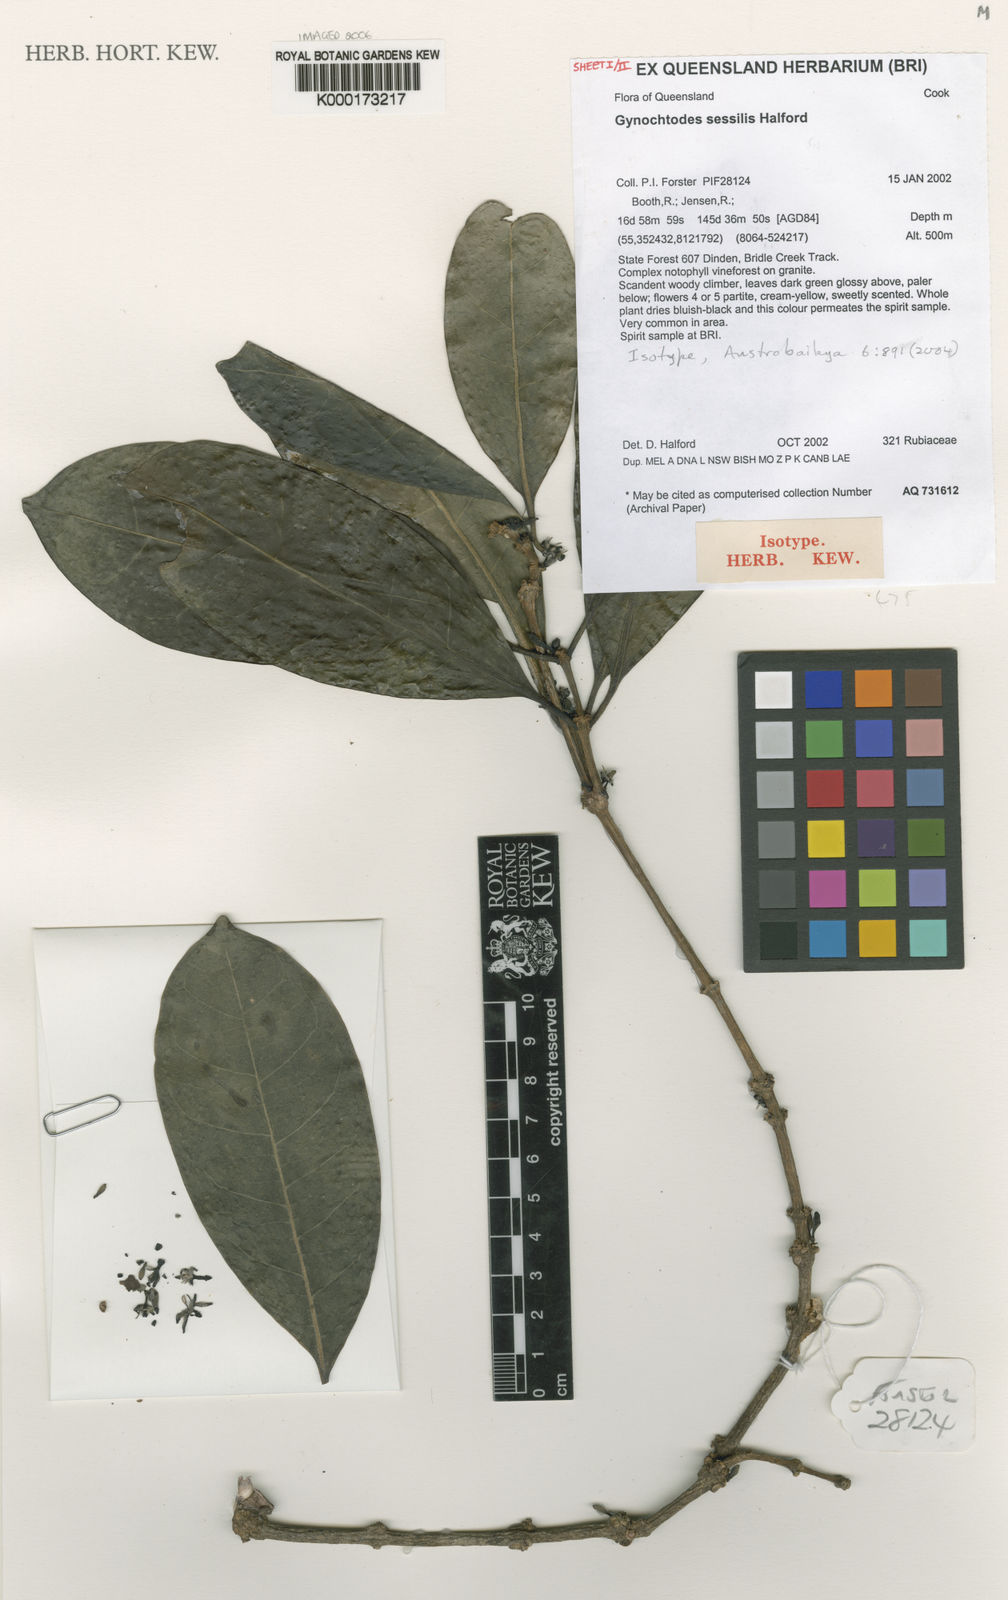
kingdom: Plantae
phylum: Tracheophyta
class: Magnoliopsida
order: Gentianales
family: Rubiaceae
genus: Gynochthodes
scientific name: Gynochthodes sessilis
